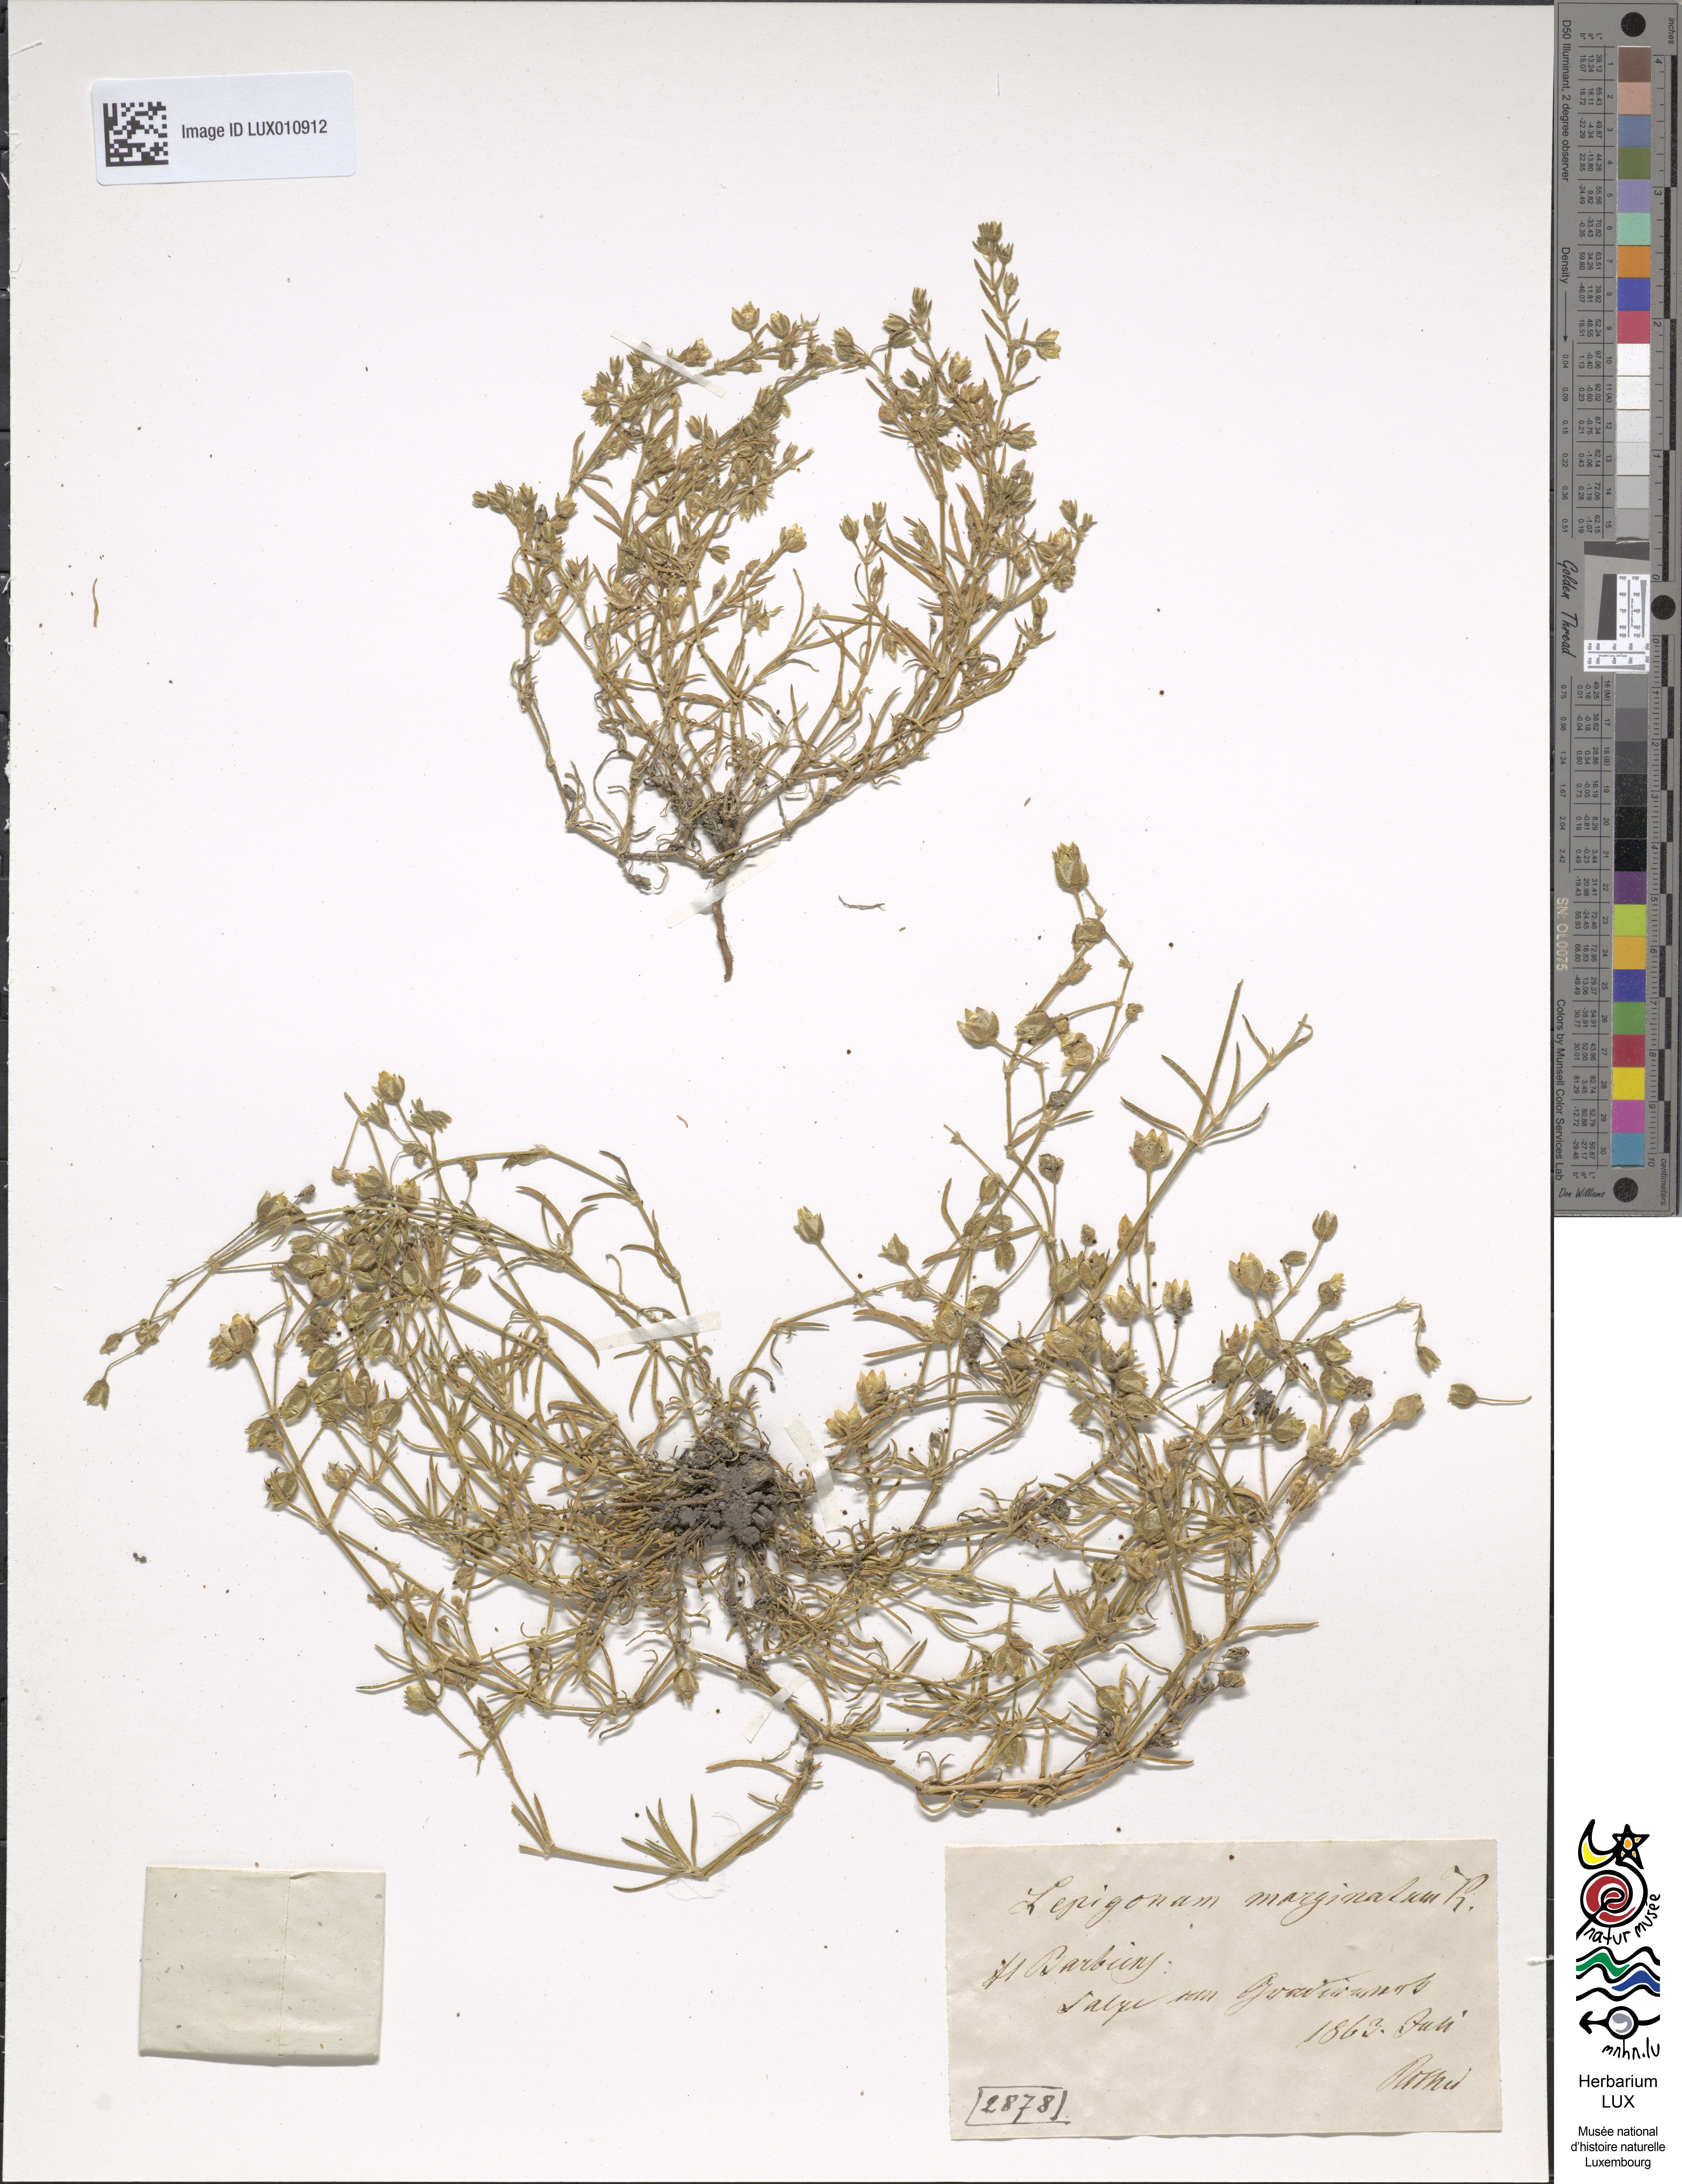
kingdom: Plantae
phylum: Tracheophyta
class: Magnoliopsida
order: Caryophyllales
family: Caryophyllaceae
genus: Spergularia
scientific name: Spergularia media
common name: Greater sea-spurrey
